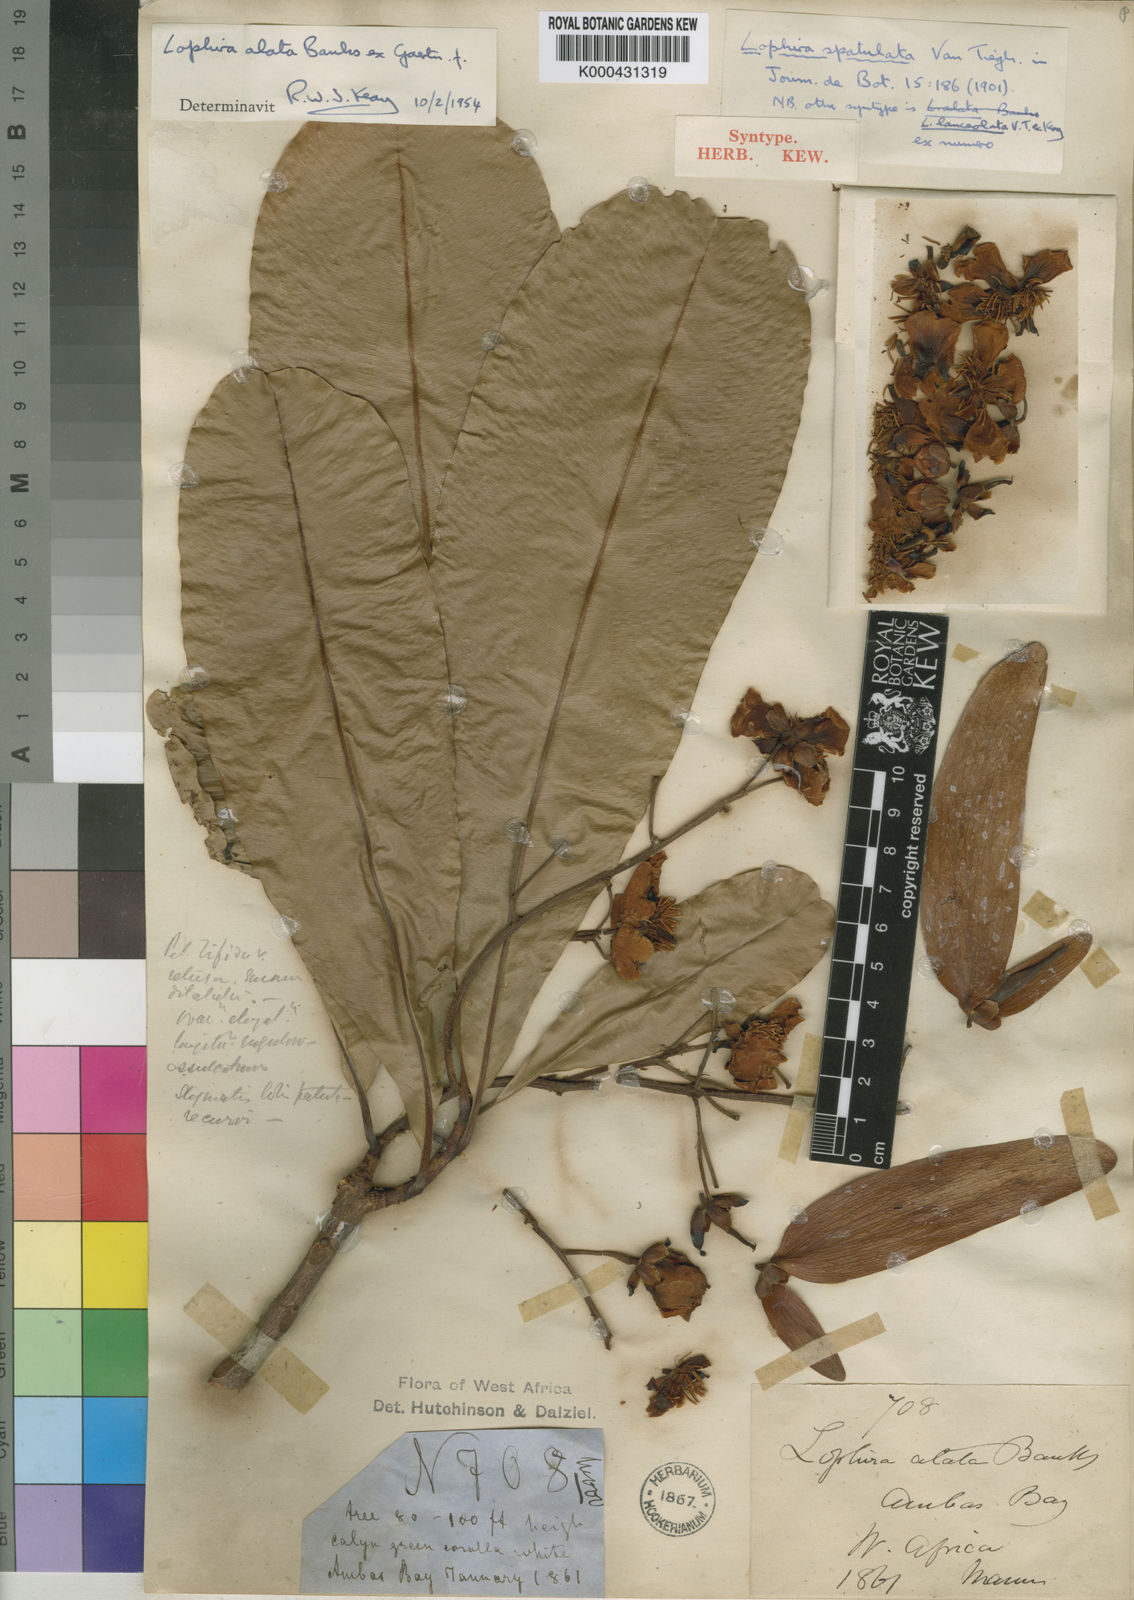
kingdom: Plantae
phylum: Tracheophyta
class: Magnoliopsida
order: Malpighiales
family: Ochnaceae
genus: Lophira
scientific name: Lophira alata
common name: Azobe
